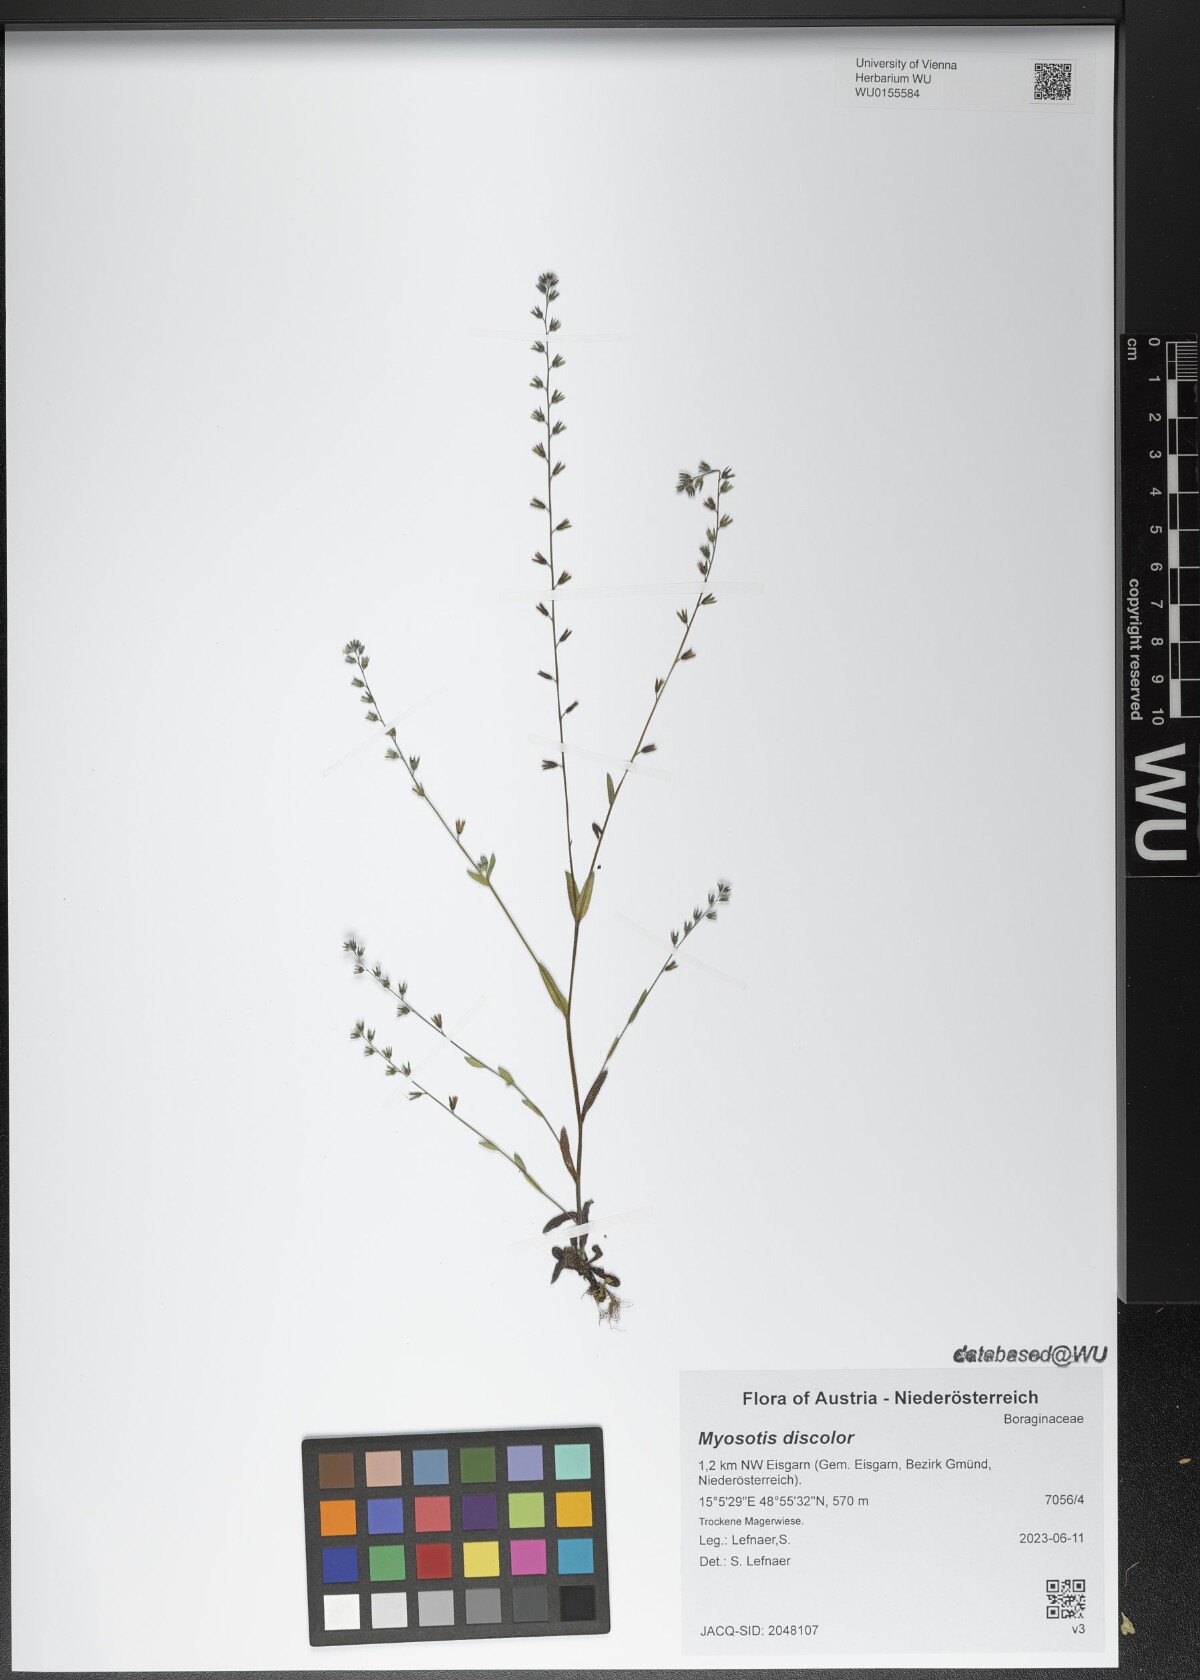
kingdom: Plantae
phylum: Tracheophyta
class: Magnoliopsida
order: Boraginales
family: Boraginaceae
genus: Myosotis
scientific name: Myosotis discolor
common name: Changing forget-me-not
